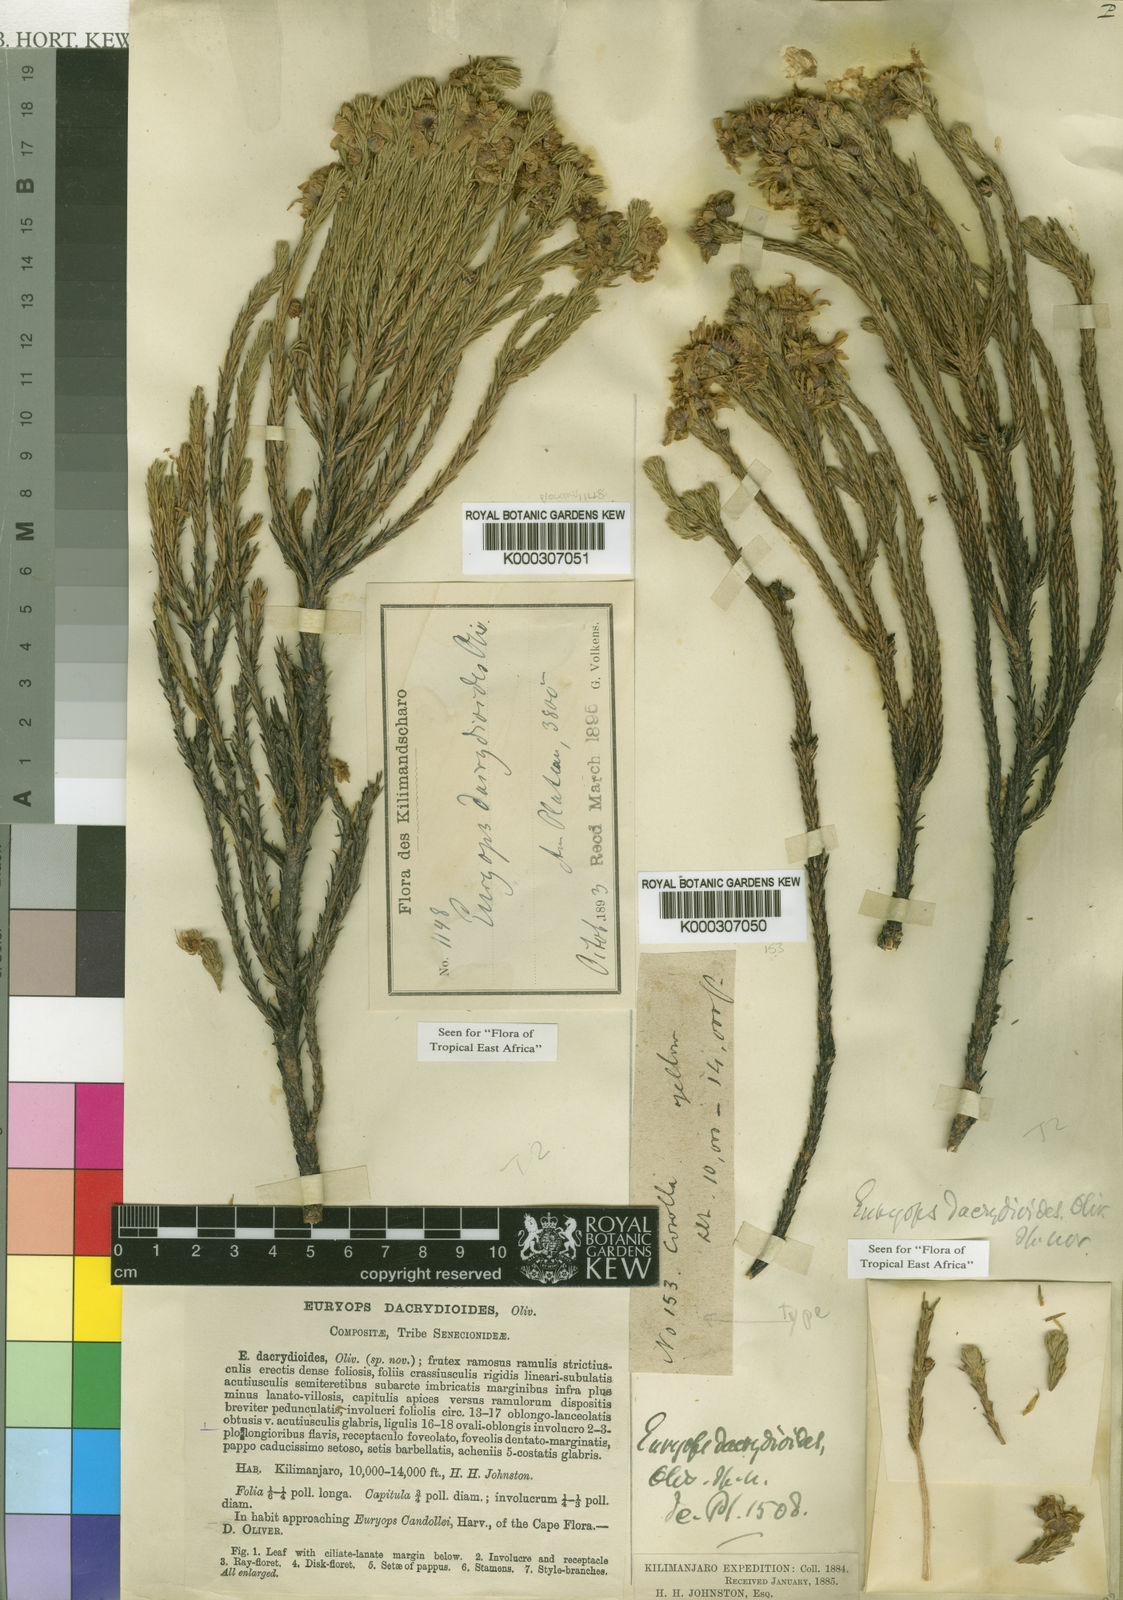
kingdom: Plantae
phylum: Tracheophyta
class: Magnoliopsida
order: Asterales
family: Asteraceae
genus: Euryops
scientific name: Euryops dacrydioides
